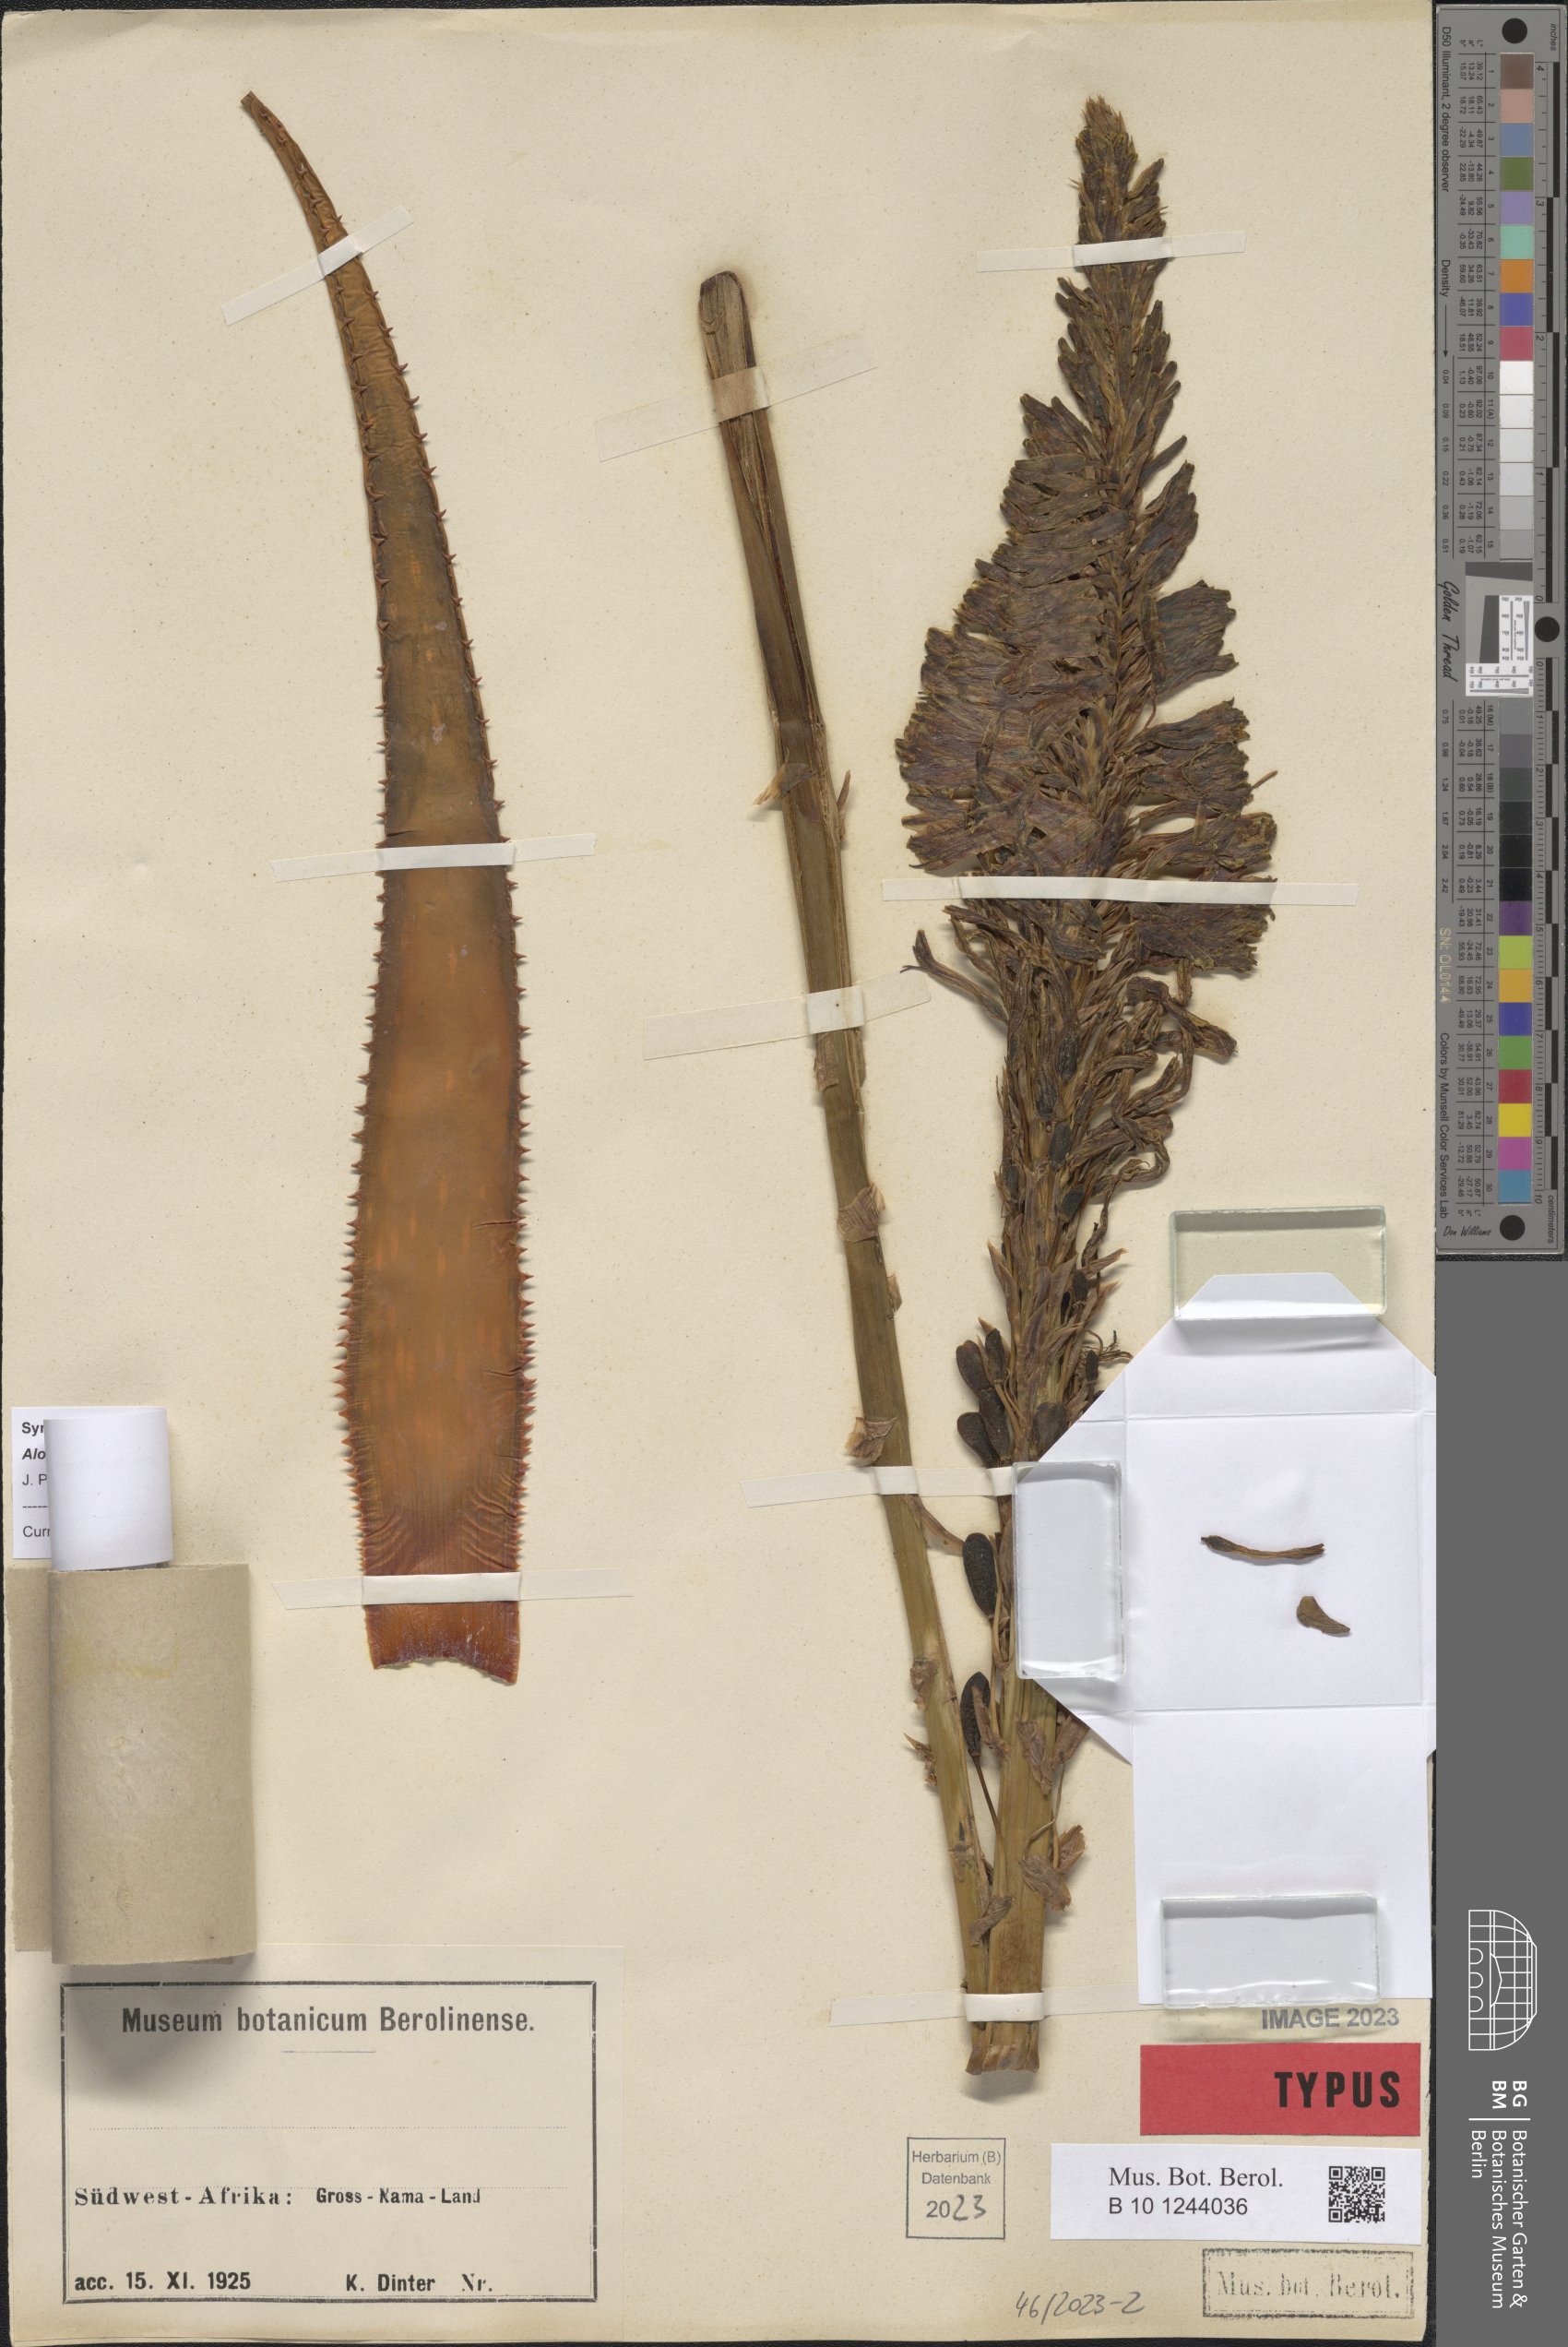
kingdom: Plantae
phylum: Tracheophyta
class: Liliopsida
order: Asparagales
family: Asphodelaceae
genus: Aloe
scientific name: Aloe microstigma
